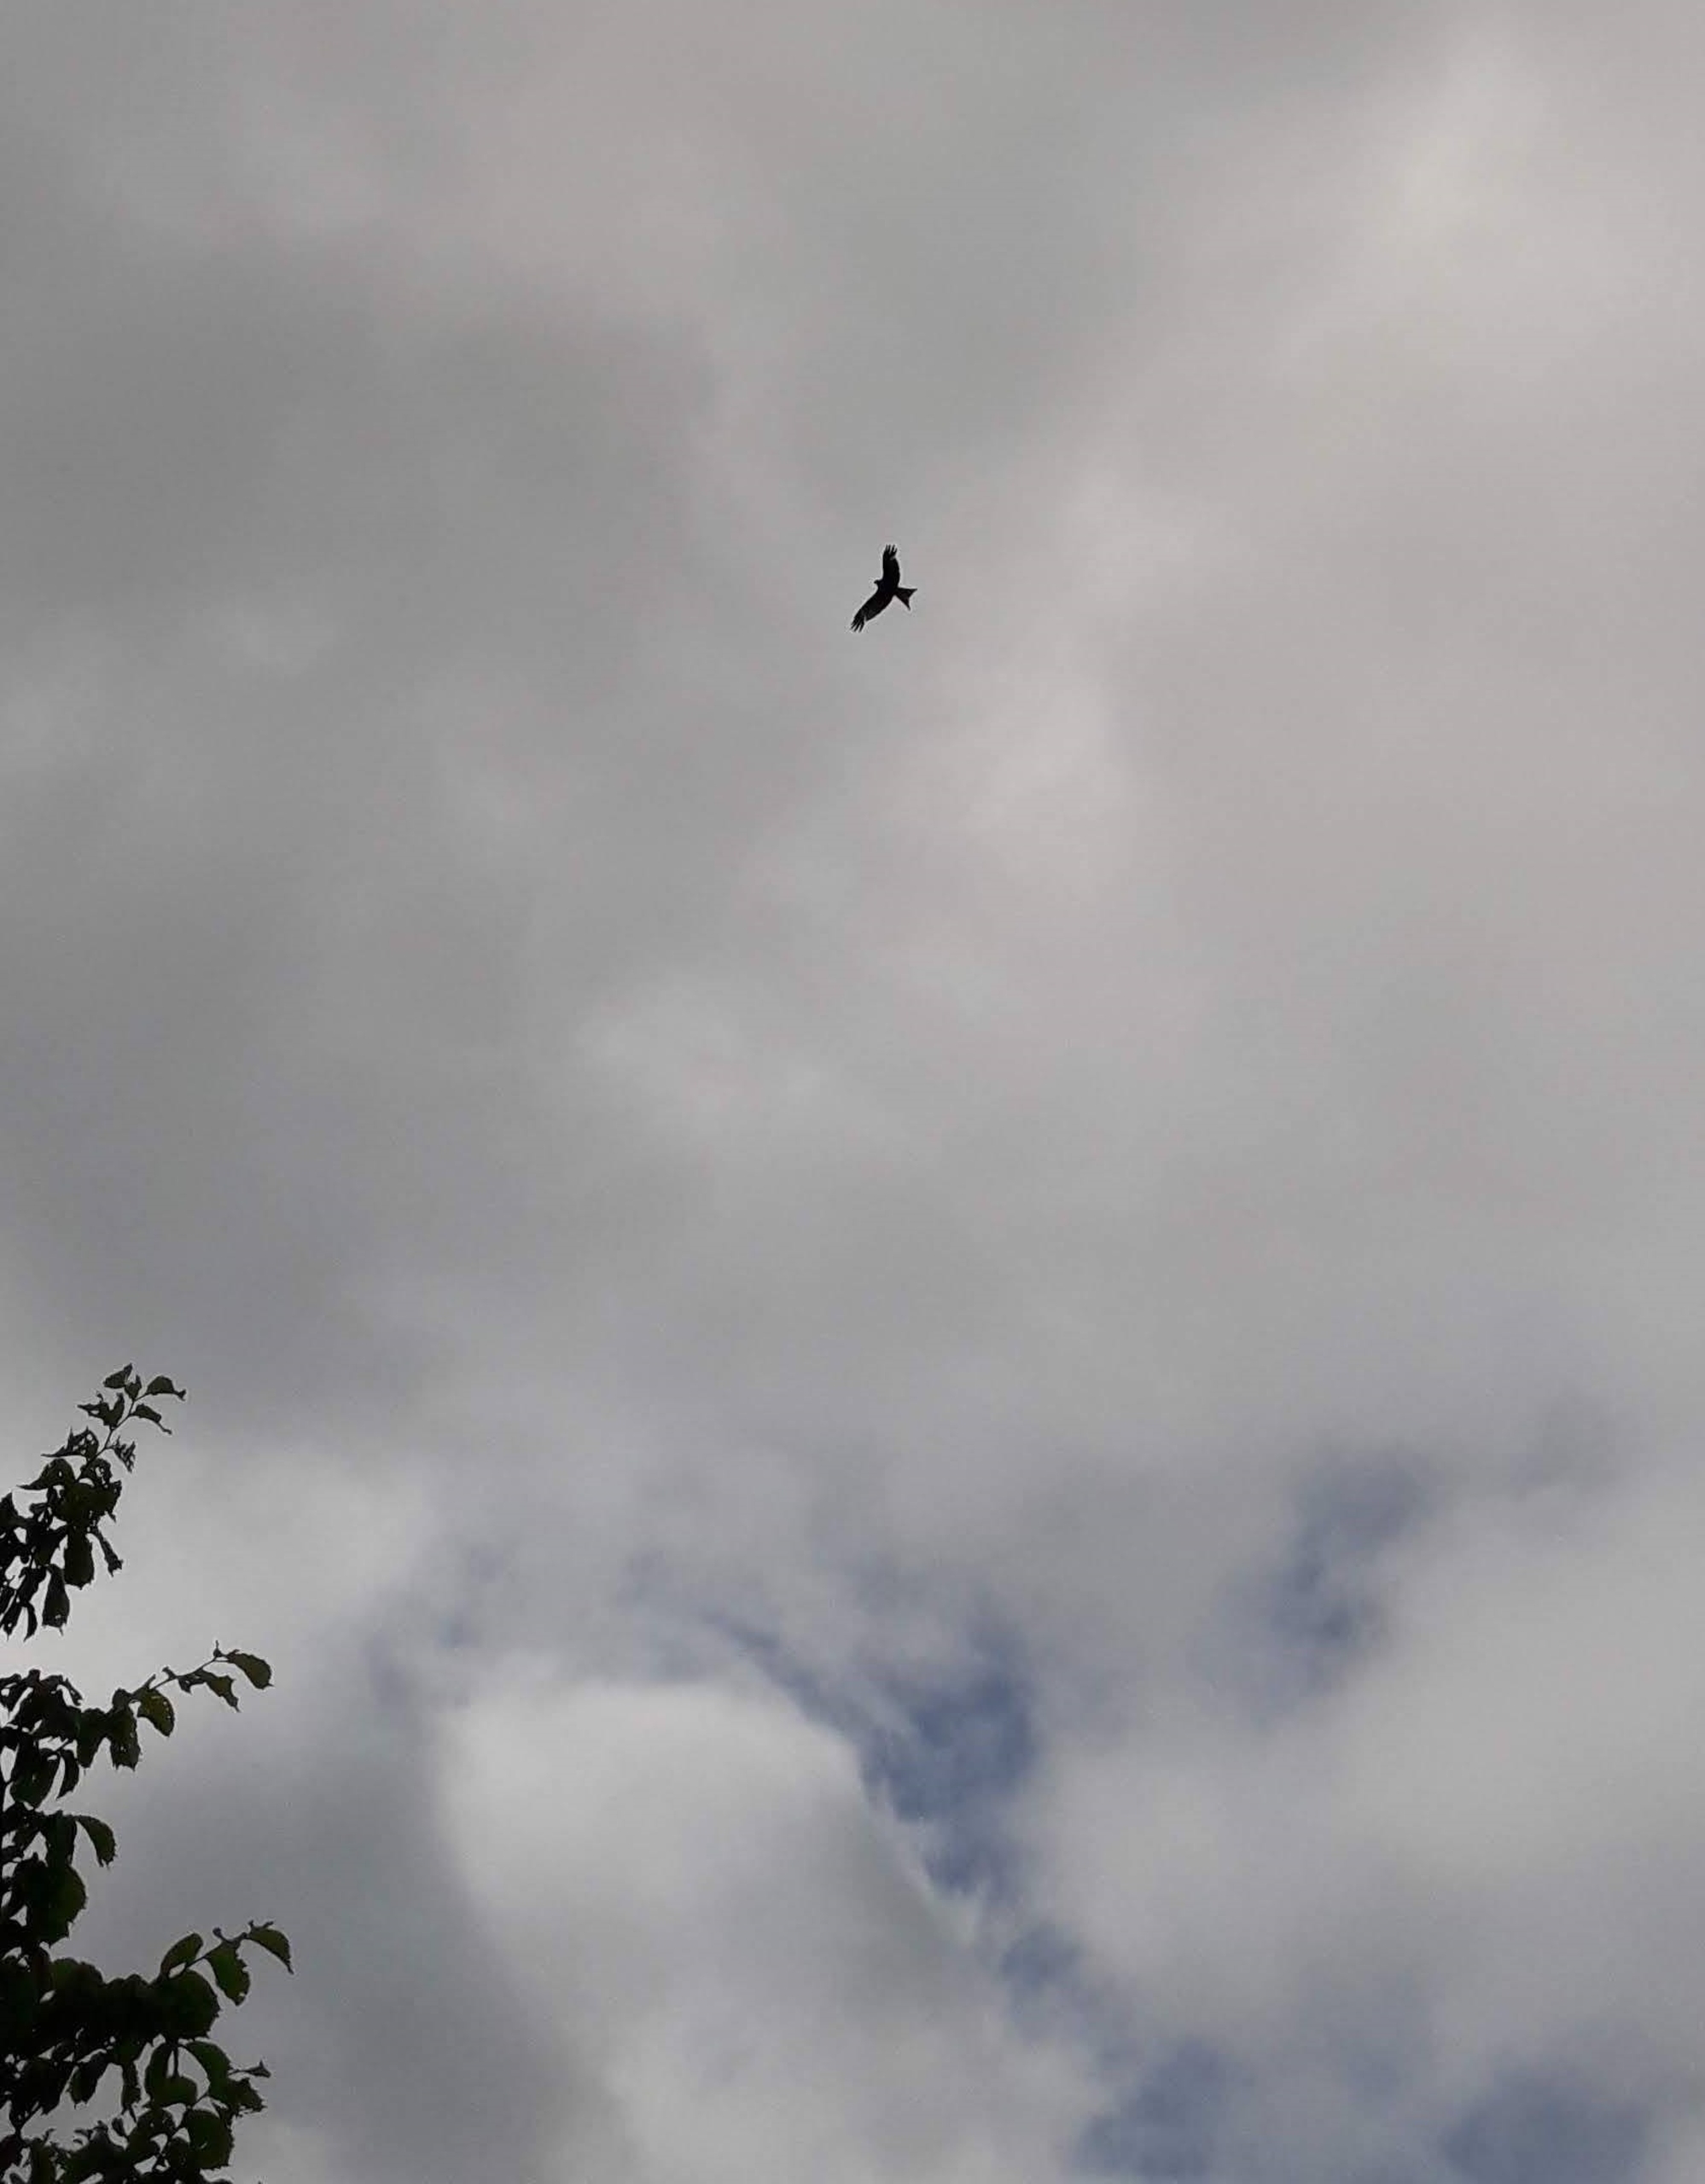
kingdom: Animalia
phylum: Chordata
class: Aves
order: Accipitriformes
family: Accipitridae
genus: Milvus
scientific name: Milvus milvus
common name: Rød glente
